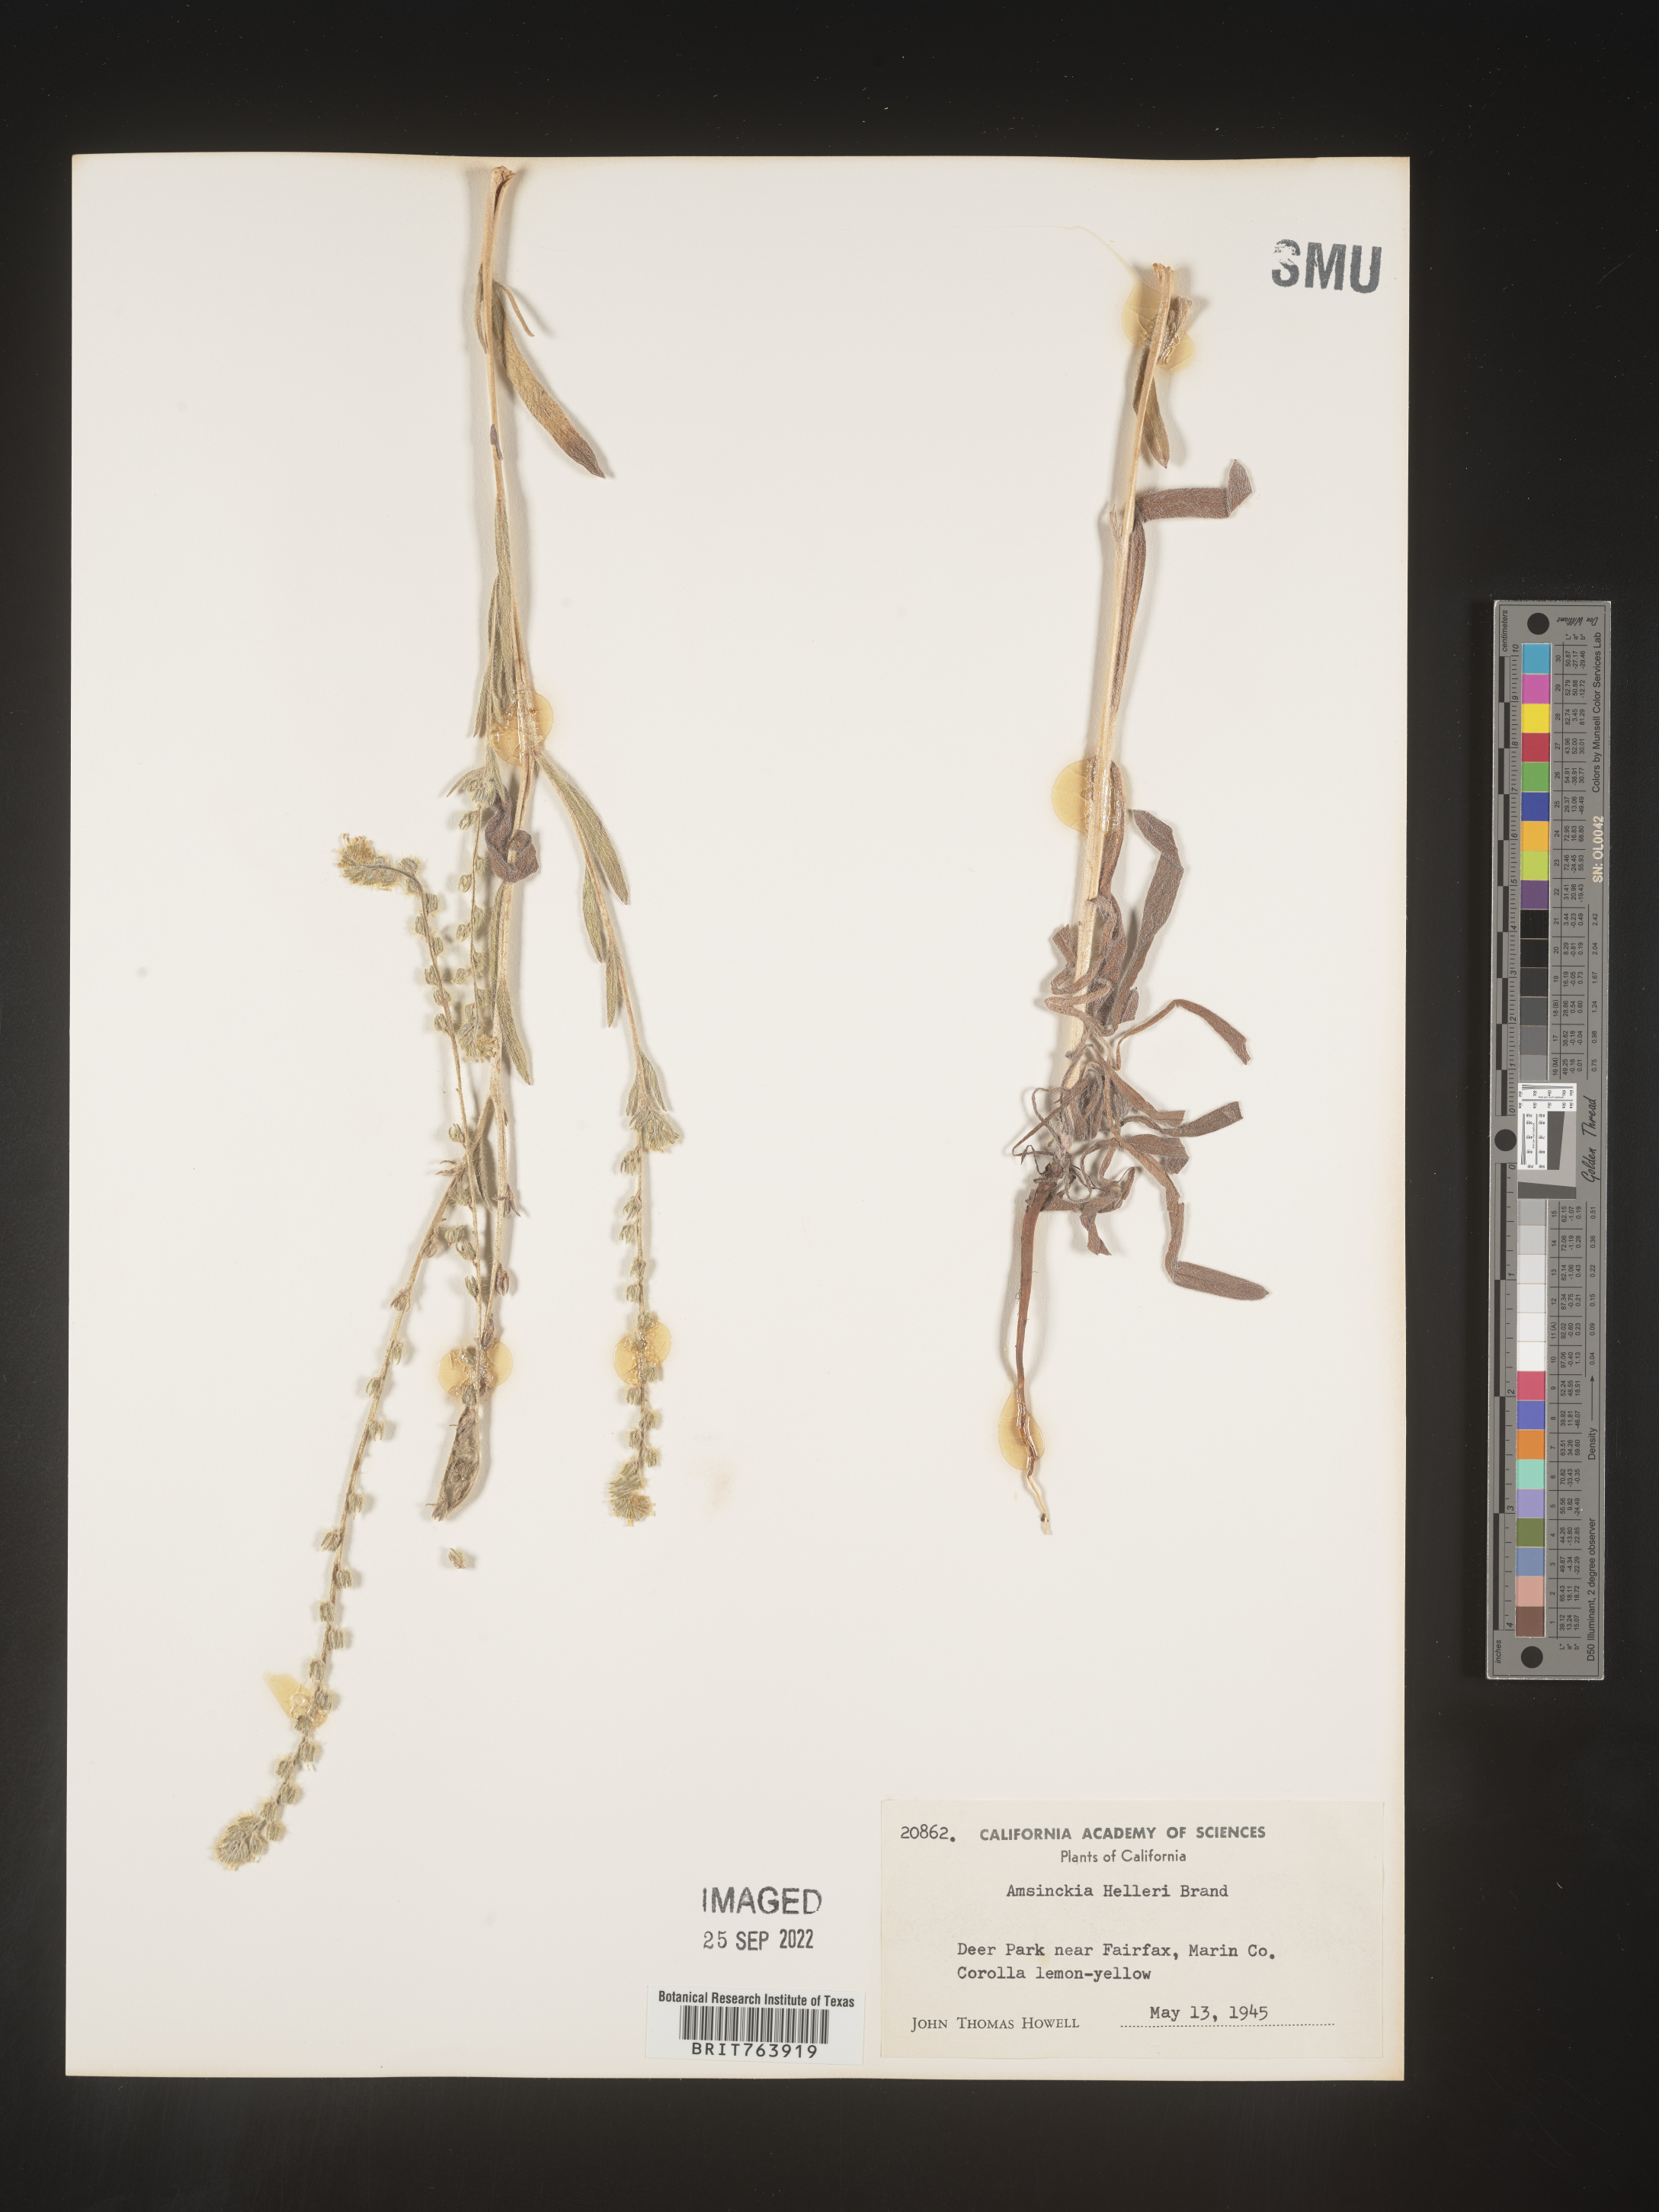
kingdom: Plantae
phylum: Tracheophyta
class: Magnoliopsida
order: Boraginales
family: Boraginaceae
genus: Amsinckia
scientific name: Amsinckia
